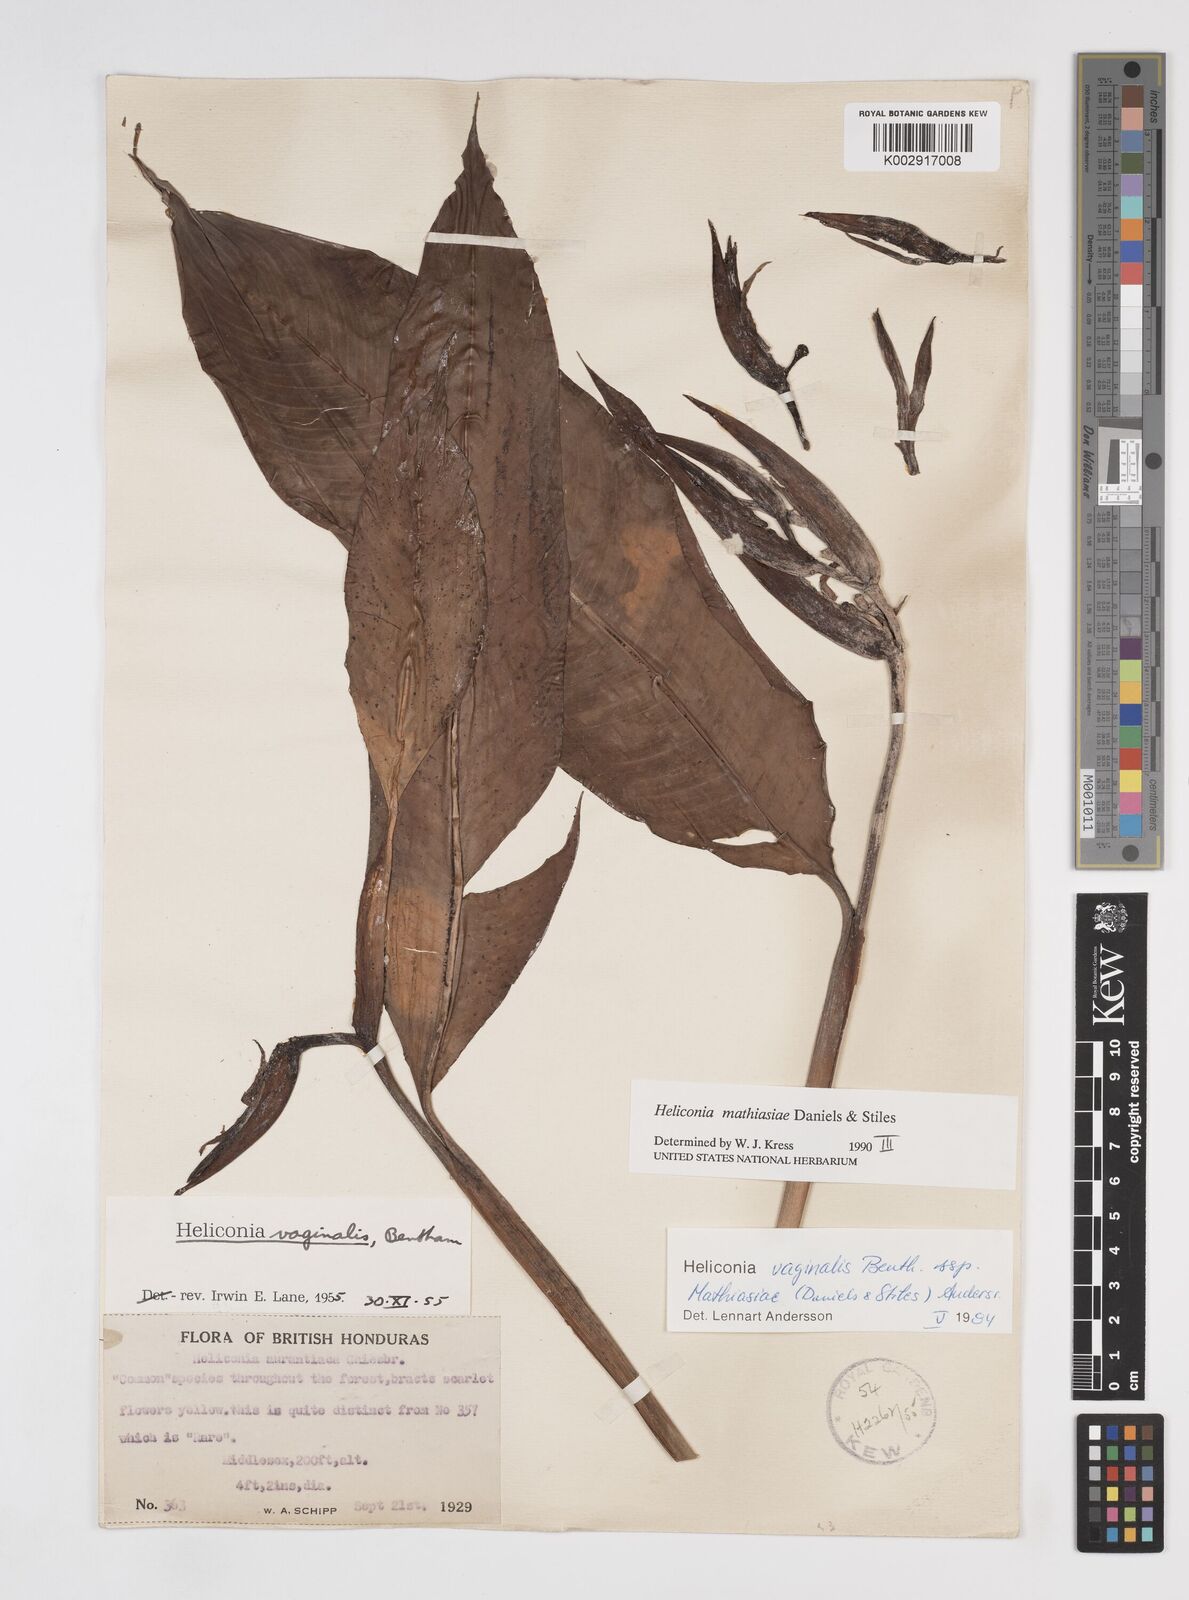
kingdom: Plantae
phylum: Tracheophyta
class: Liliopsida
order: Zingiberales
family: Heliconiaceae
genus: Heliconia
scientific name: Heliconia mathiasiae
